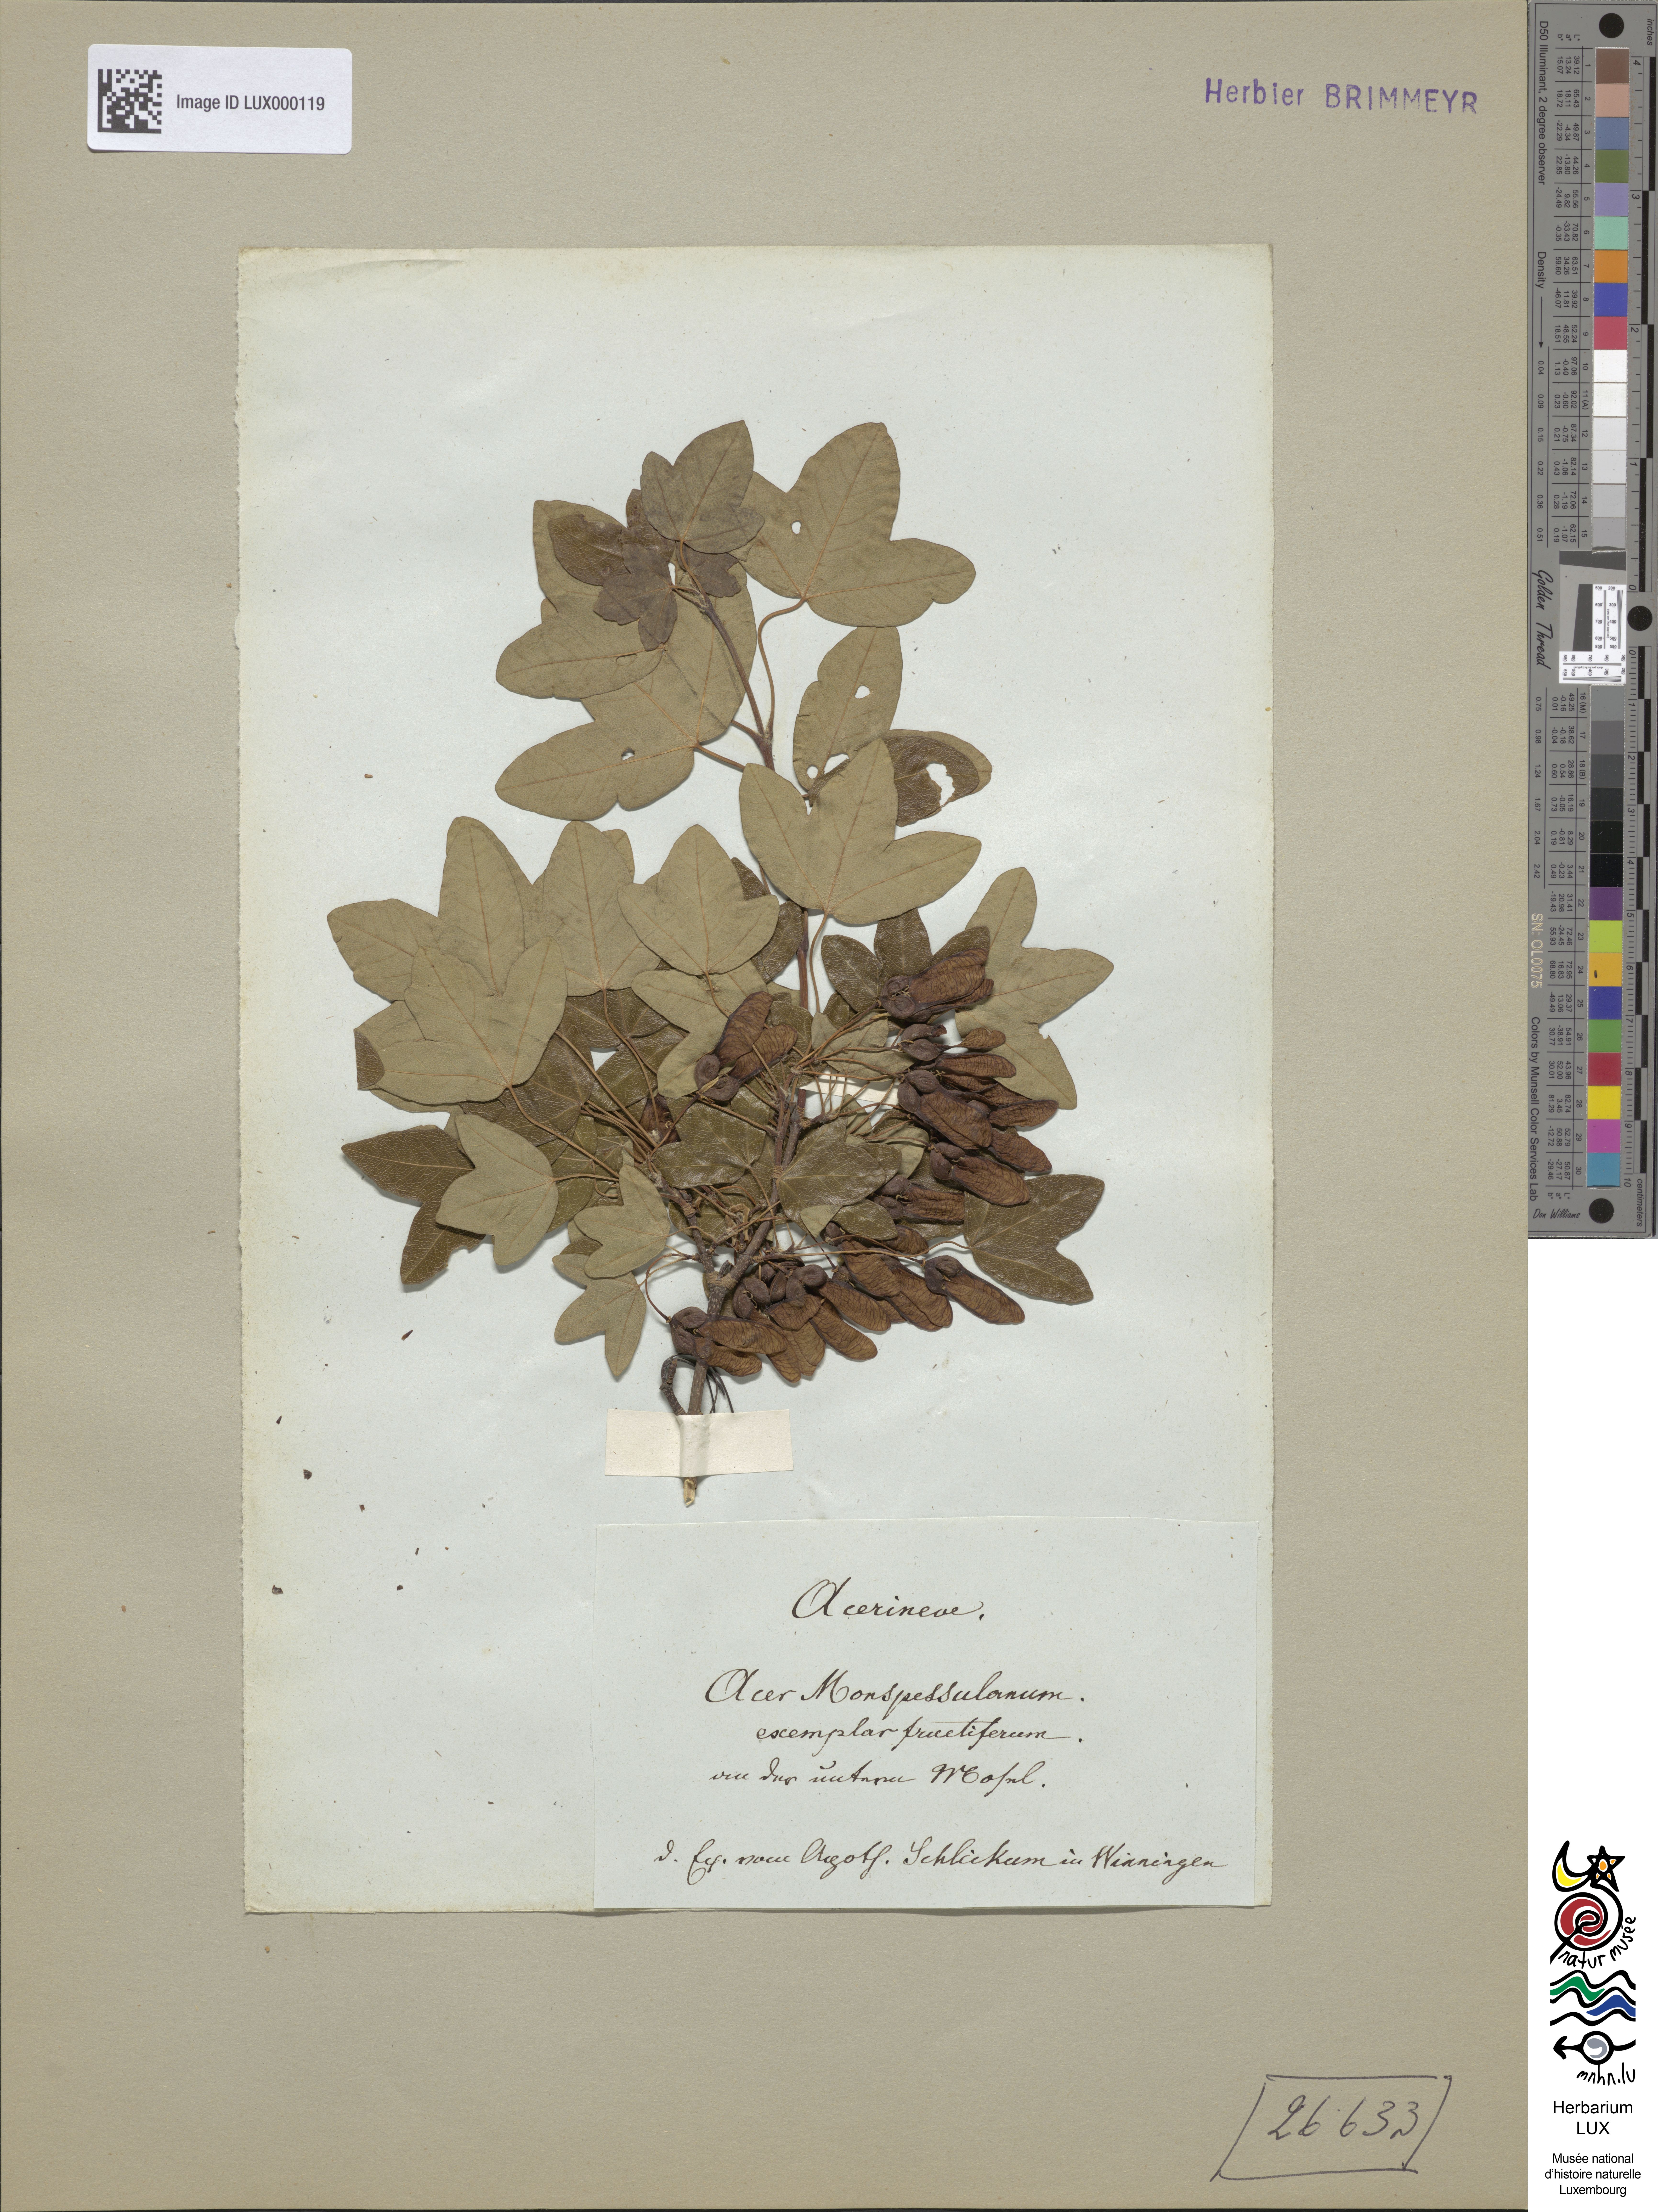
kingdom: Plantae
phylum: Tracheophyta
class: Magnoliopsida
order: Sapindales
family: Sapindaceae
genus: Acer
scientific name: Acer monspessulanum
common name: Montpellier maple
